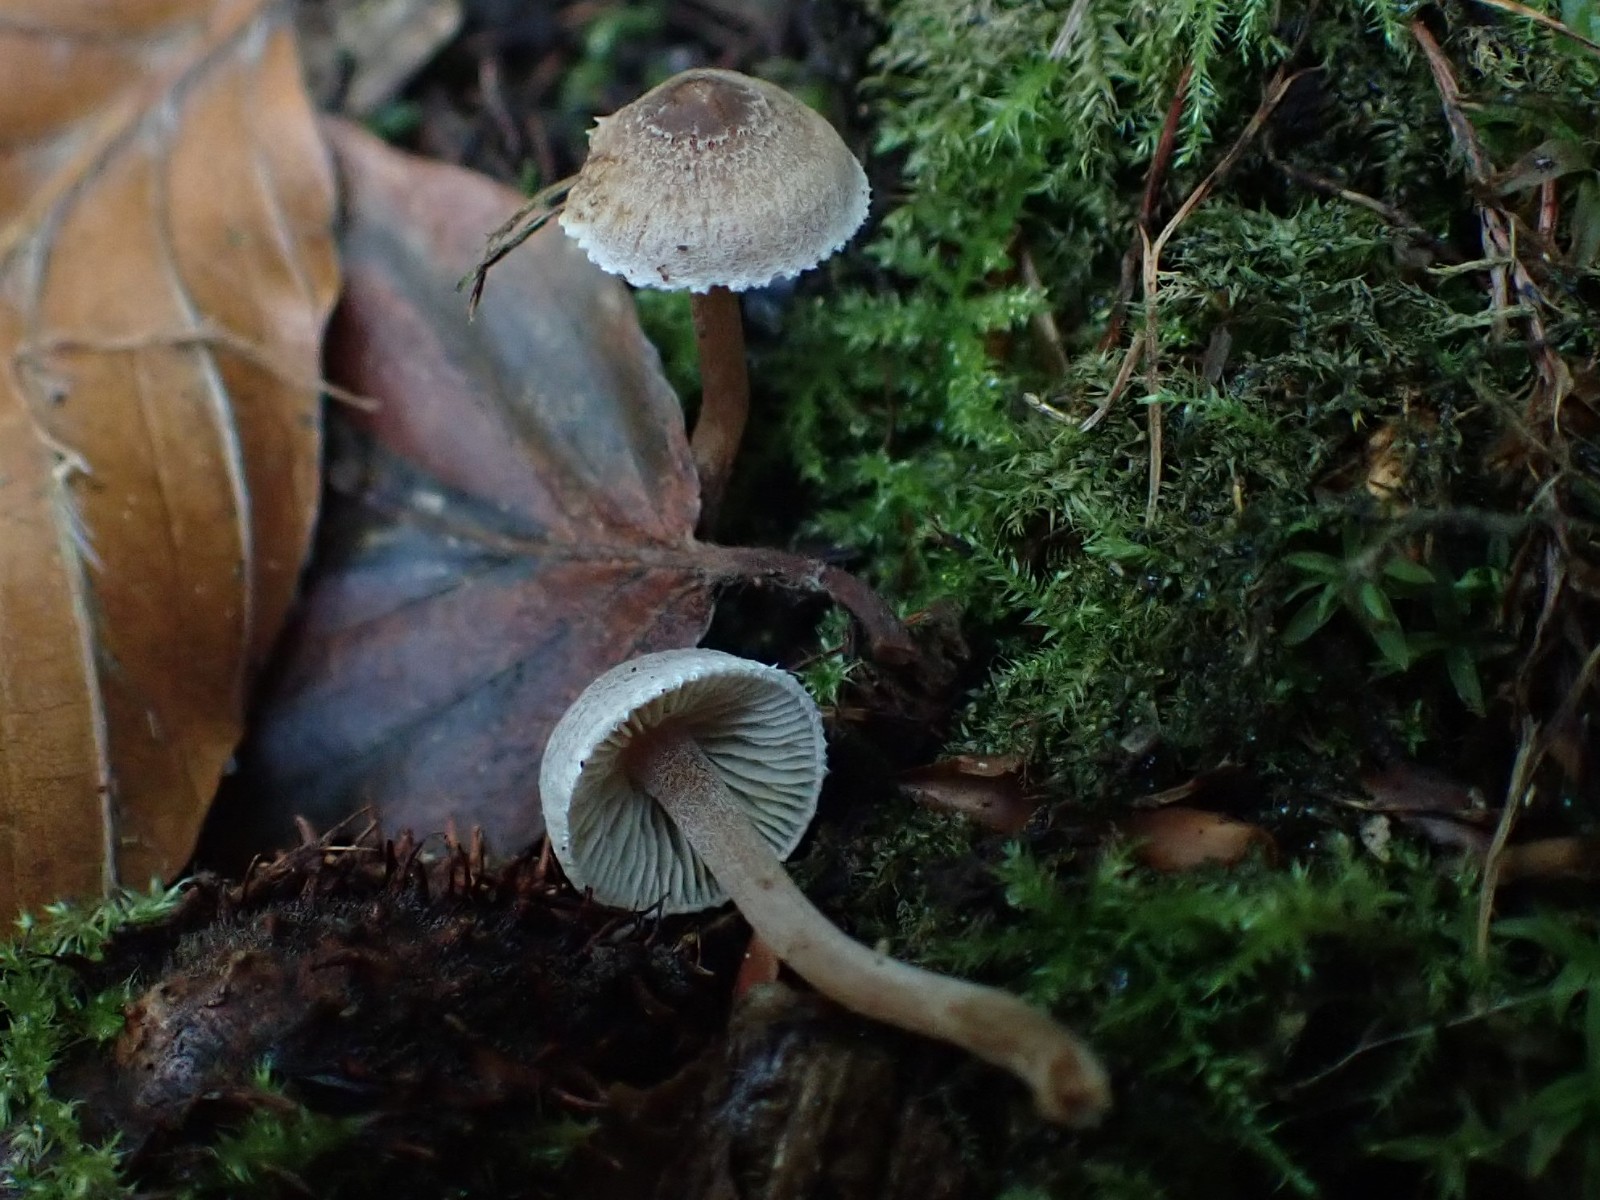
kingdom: Fungi
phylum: Basidiomycota
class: Agaricomycetes
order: Agaricales
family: Inocybaceae
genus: Inocybe
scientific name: Inocybe petiginosa
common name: liden trævlhat
